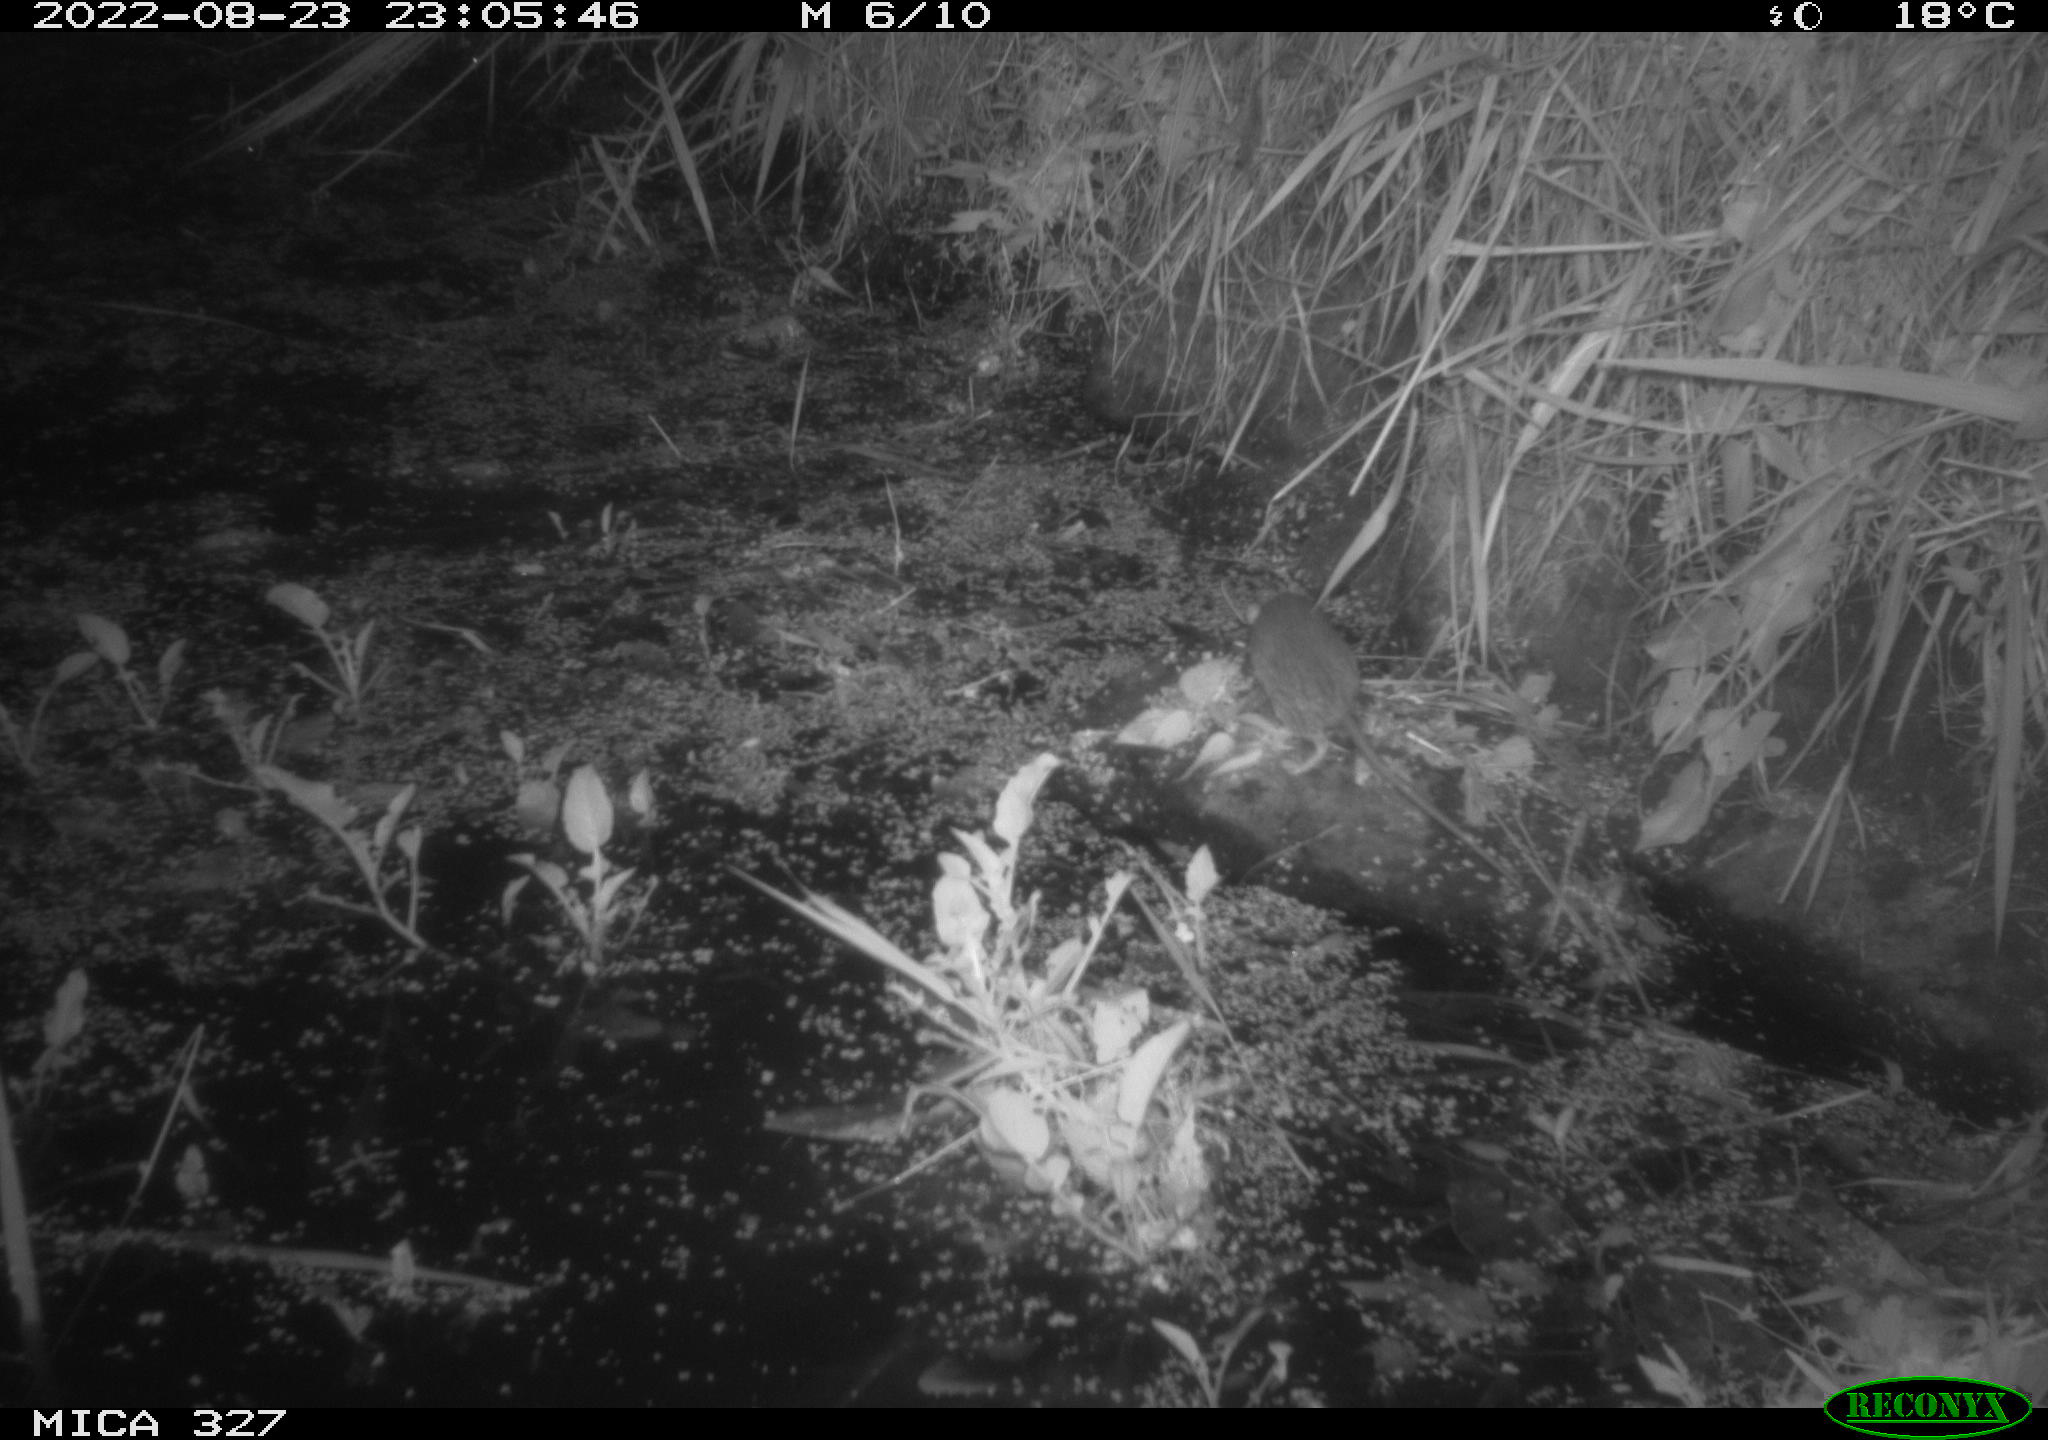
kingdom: Animalia
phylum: Chordata
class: Mammalia
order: Rodentia
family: Muridae
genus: Rattus
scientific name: Rattus norvegicus
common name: Brown rat
